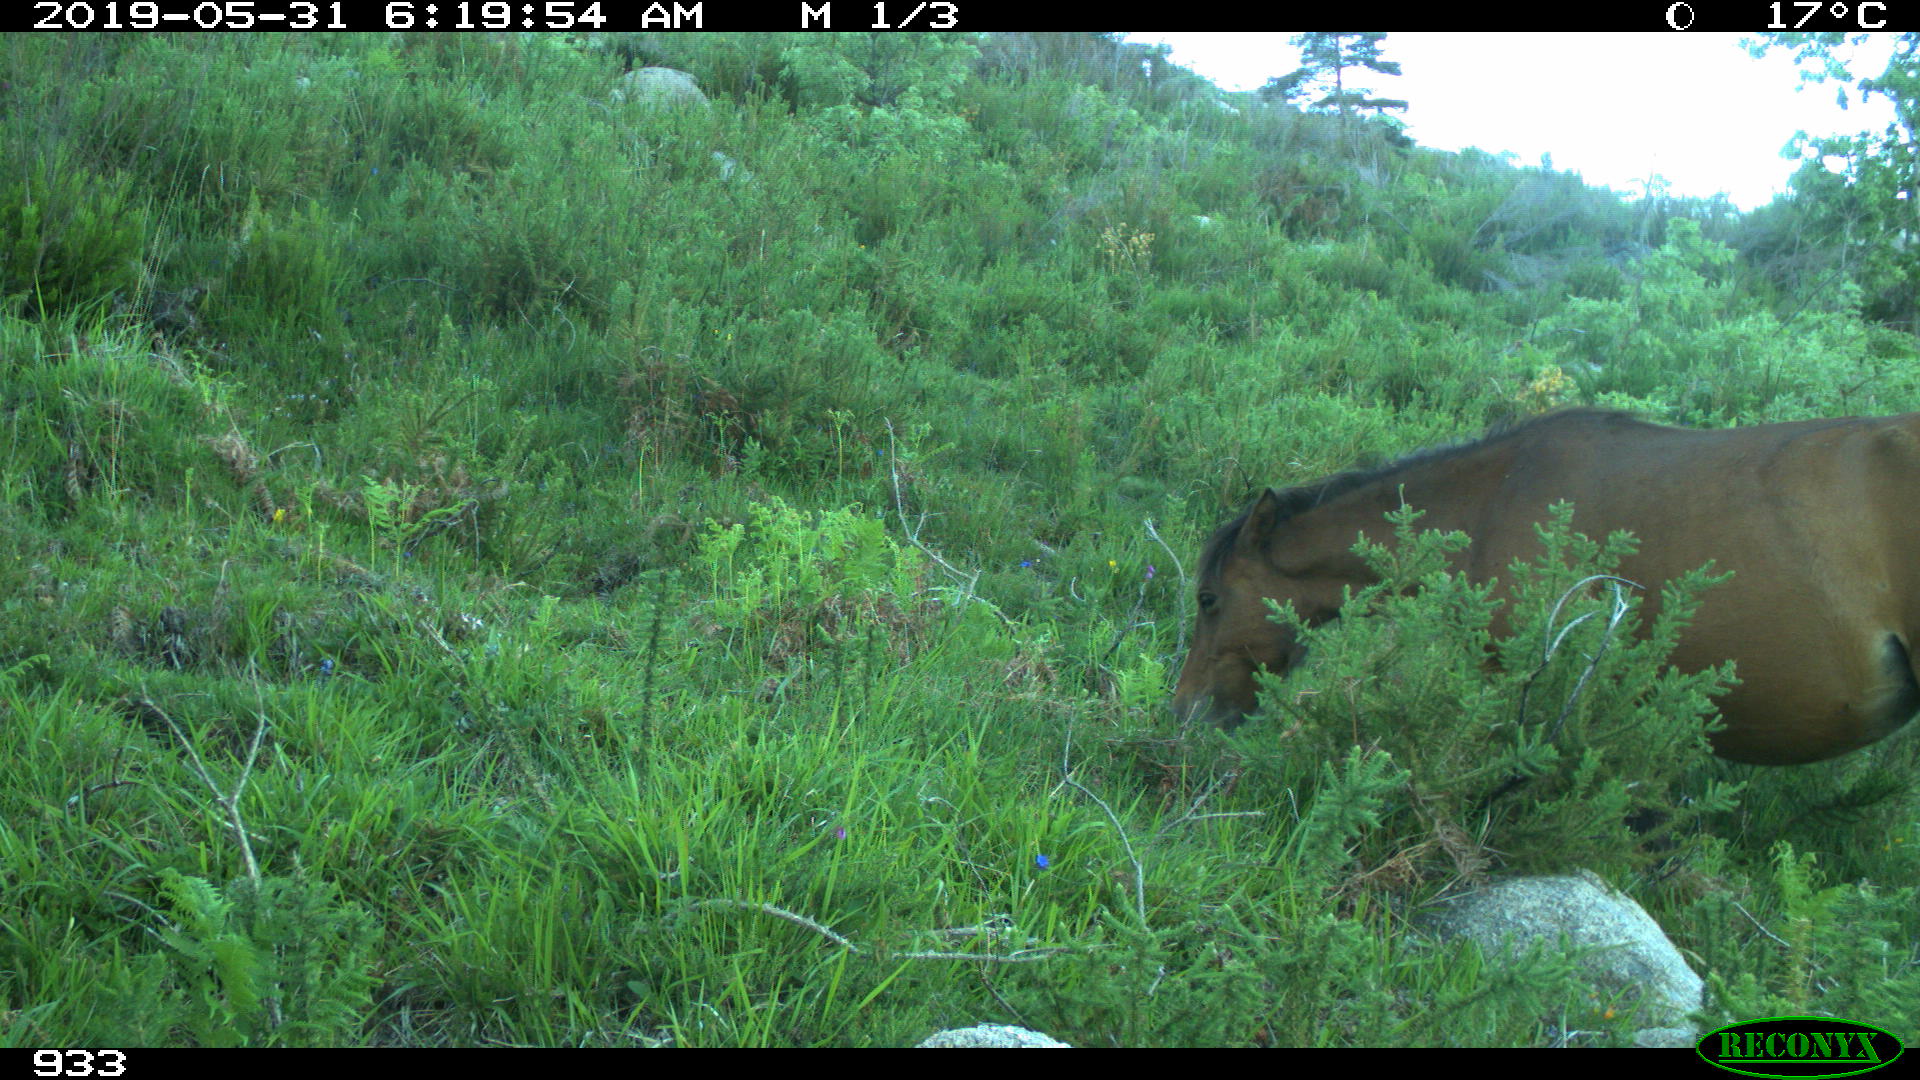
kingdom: Animalia
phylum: Chordata
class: Mammalia
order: Perissodactyla
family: Equidae
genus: Equus
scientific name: Equus caballus
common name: Horse
